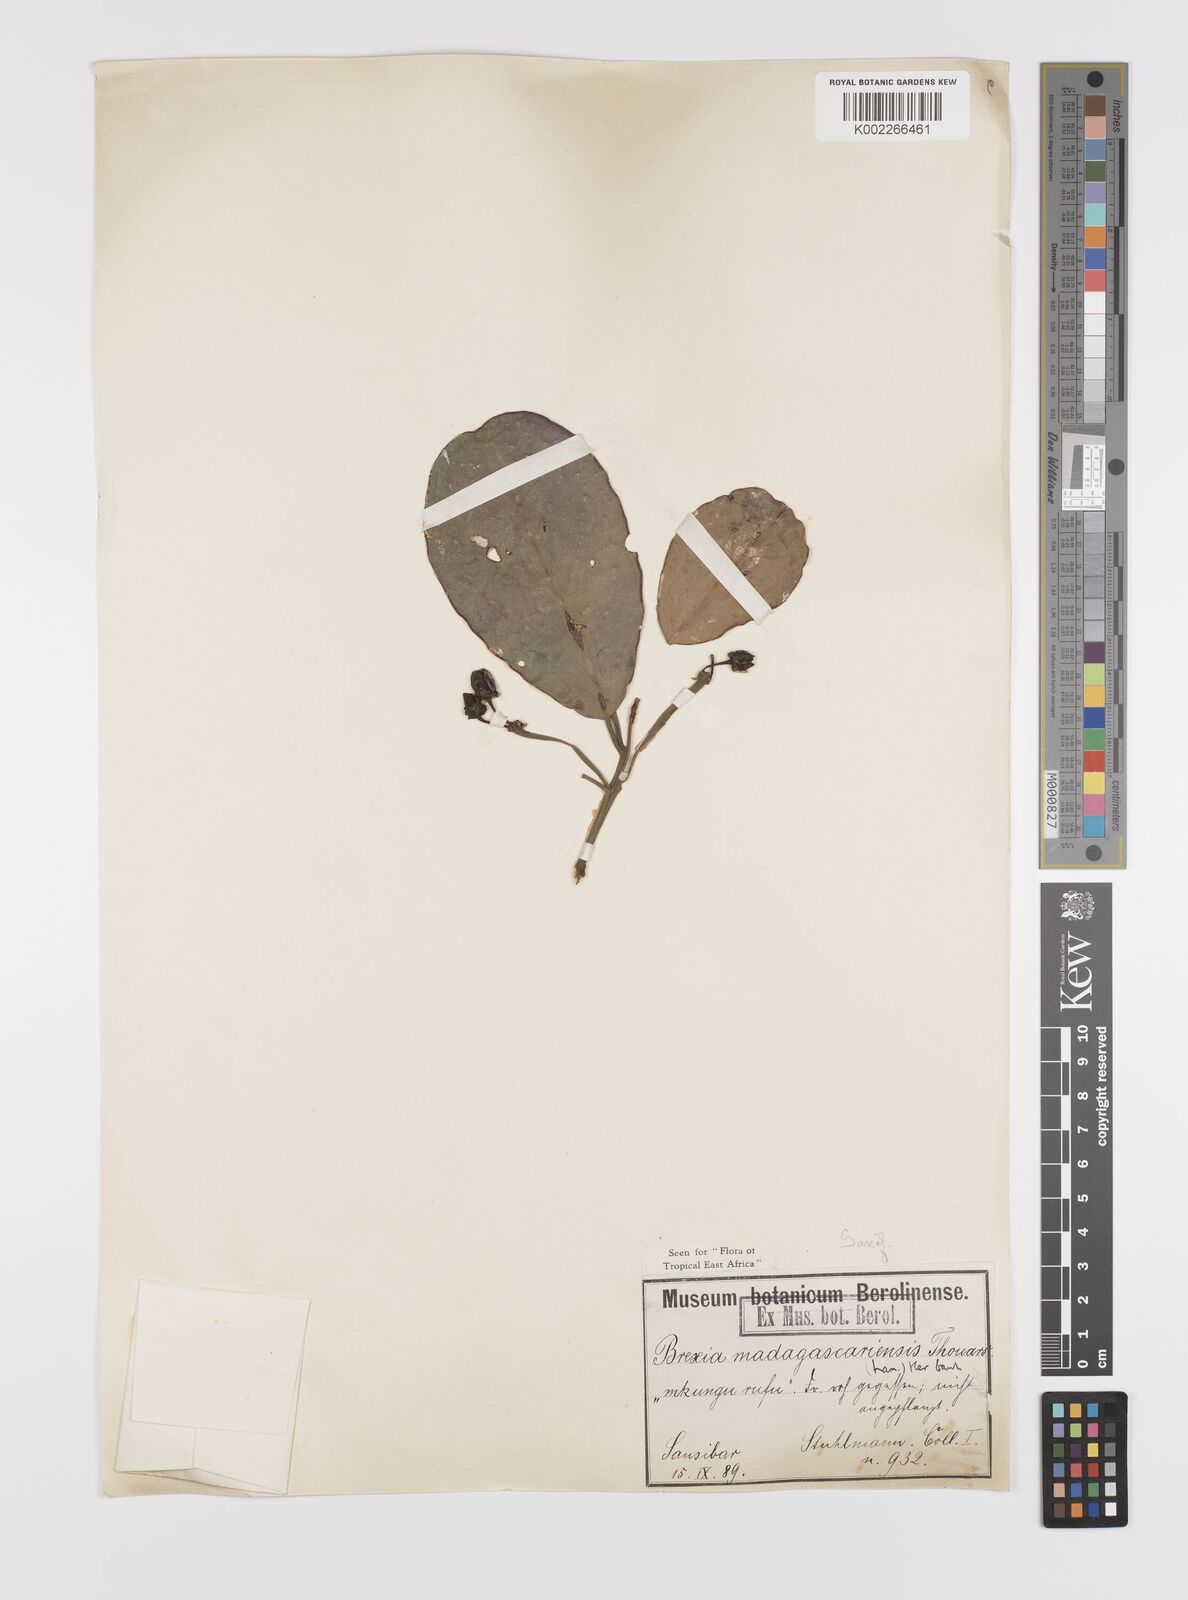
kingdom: Plantae
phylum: Tracheophyta
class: Magnoliopsida
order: Celastrales
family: Celastraceae
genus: Brexia
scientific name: Brexia madagascariensis
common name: Brexia
